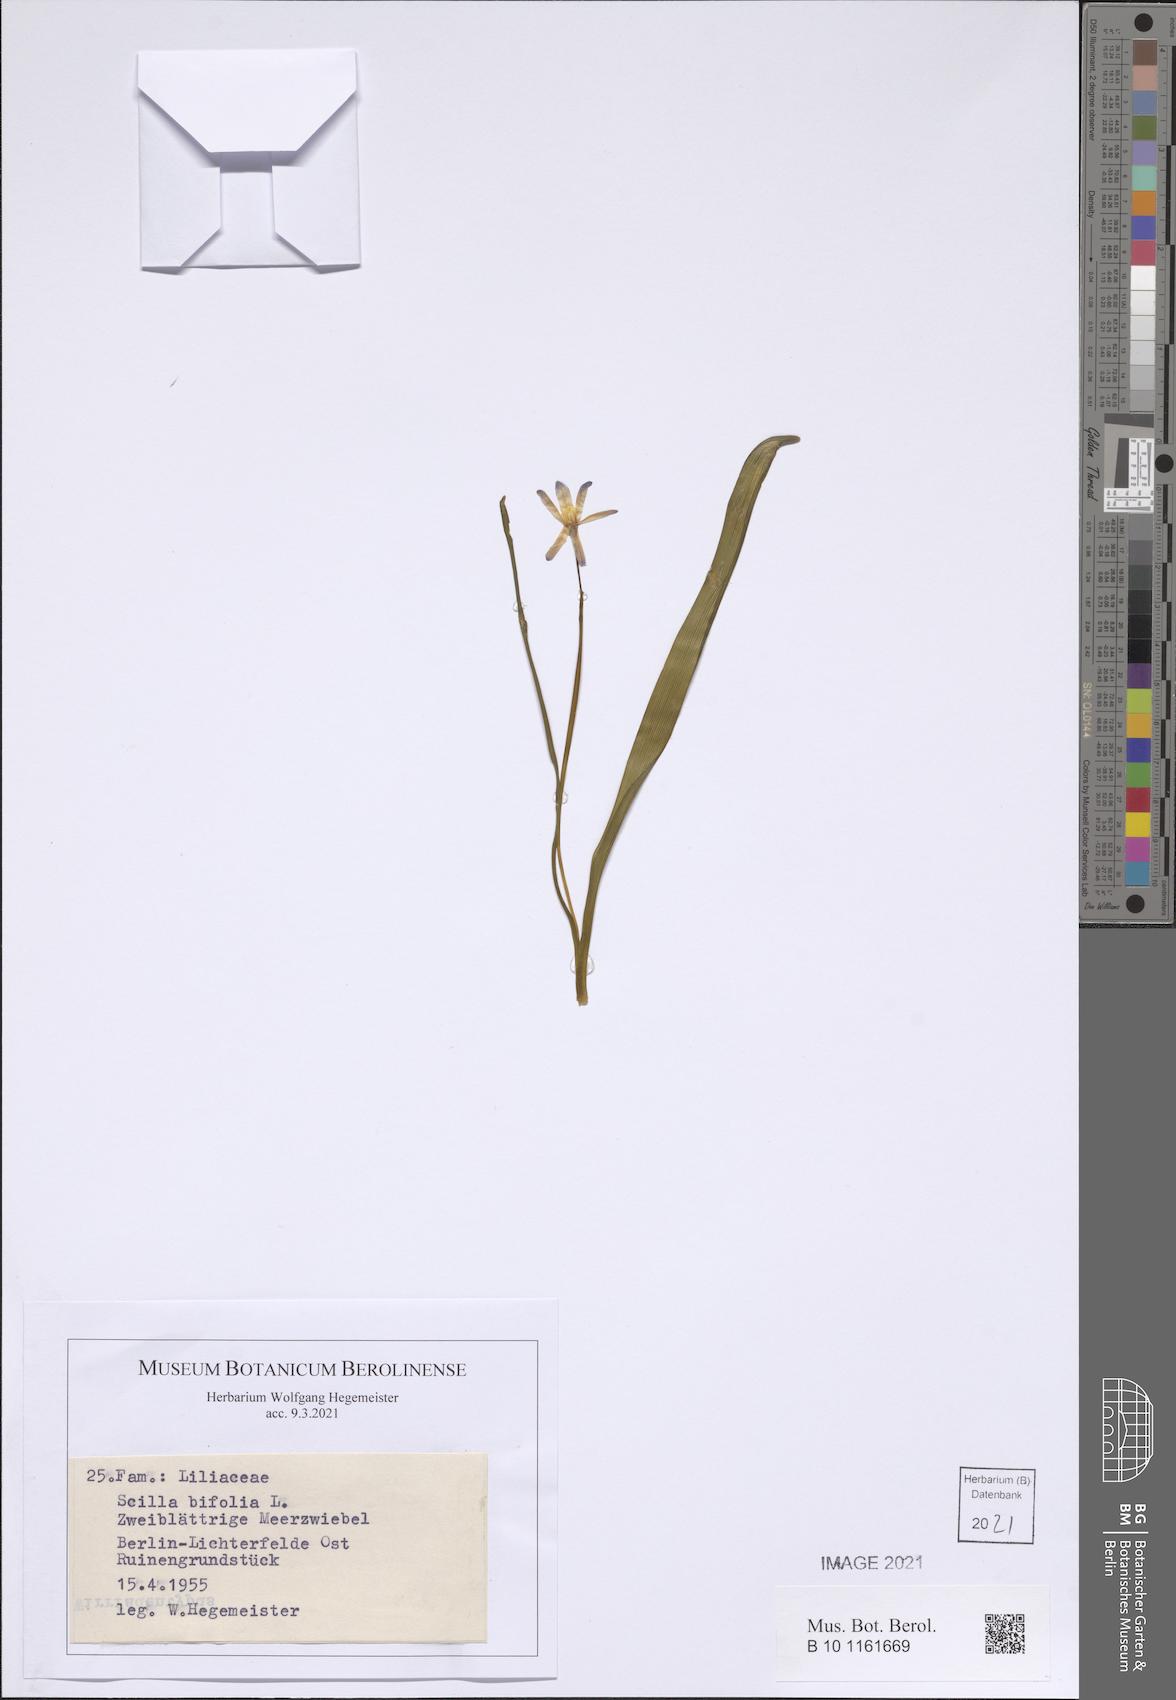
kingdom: Plantae
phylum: Tracheophyta
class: Liliopsida
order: Asparagales
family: Asparagaceae
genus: Scilla
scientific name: Scilla bifolia
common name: Alpine squill
